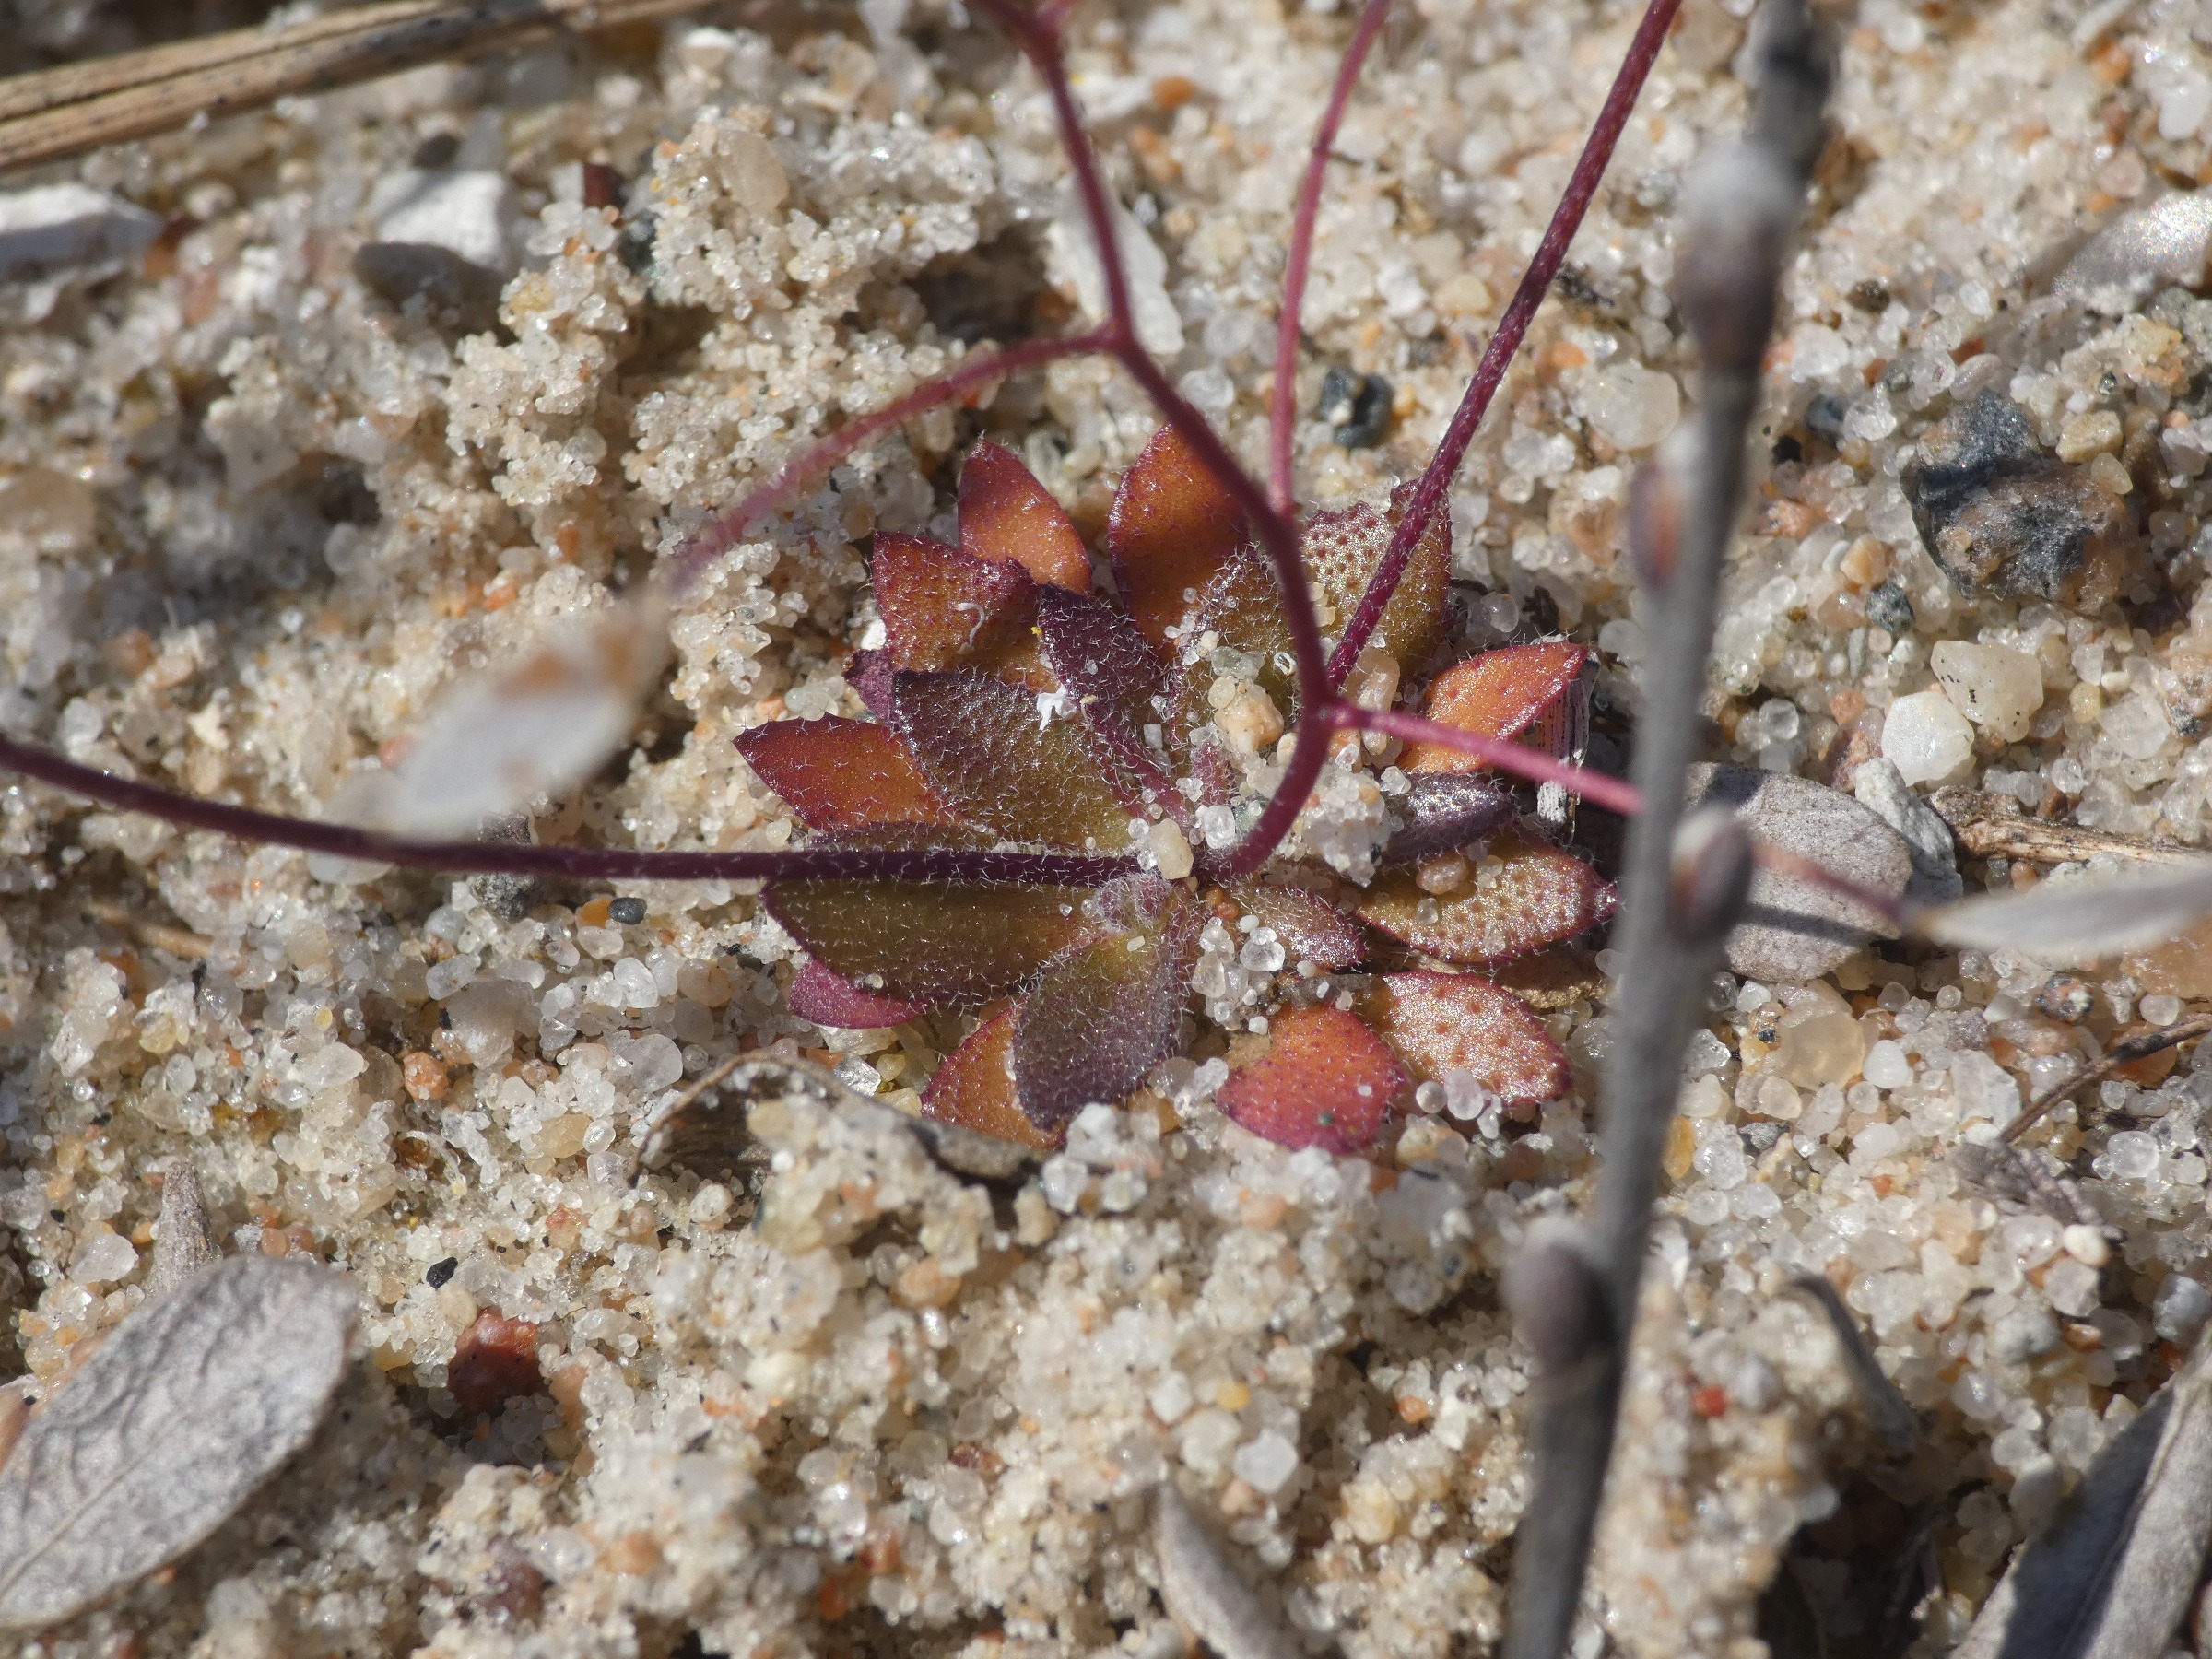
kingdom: Plantae
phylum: Tracheophyta
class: Magnoliopsida
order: Brassicales
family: Brassicaceae
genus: Draba
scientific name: Draba verna
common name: Vår-gæslingeblomst
